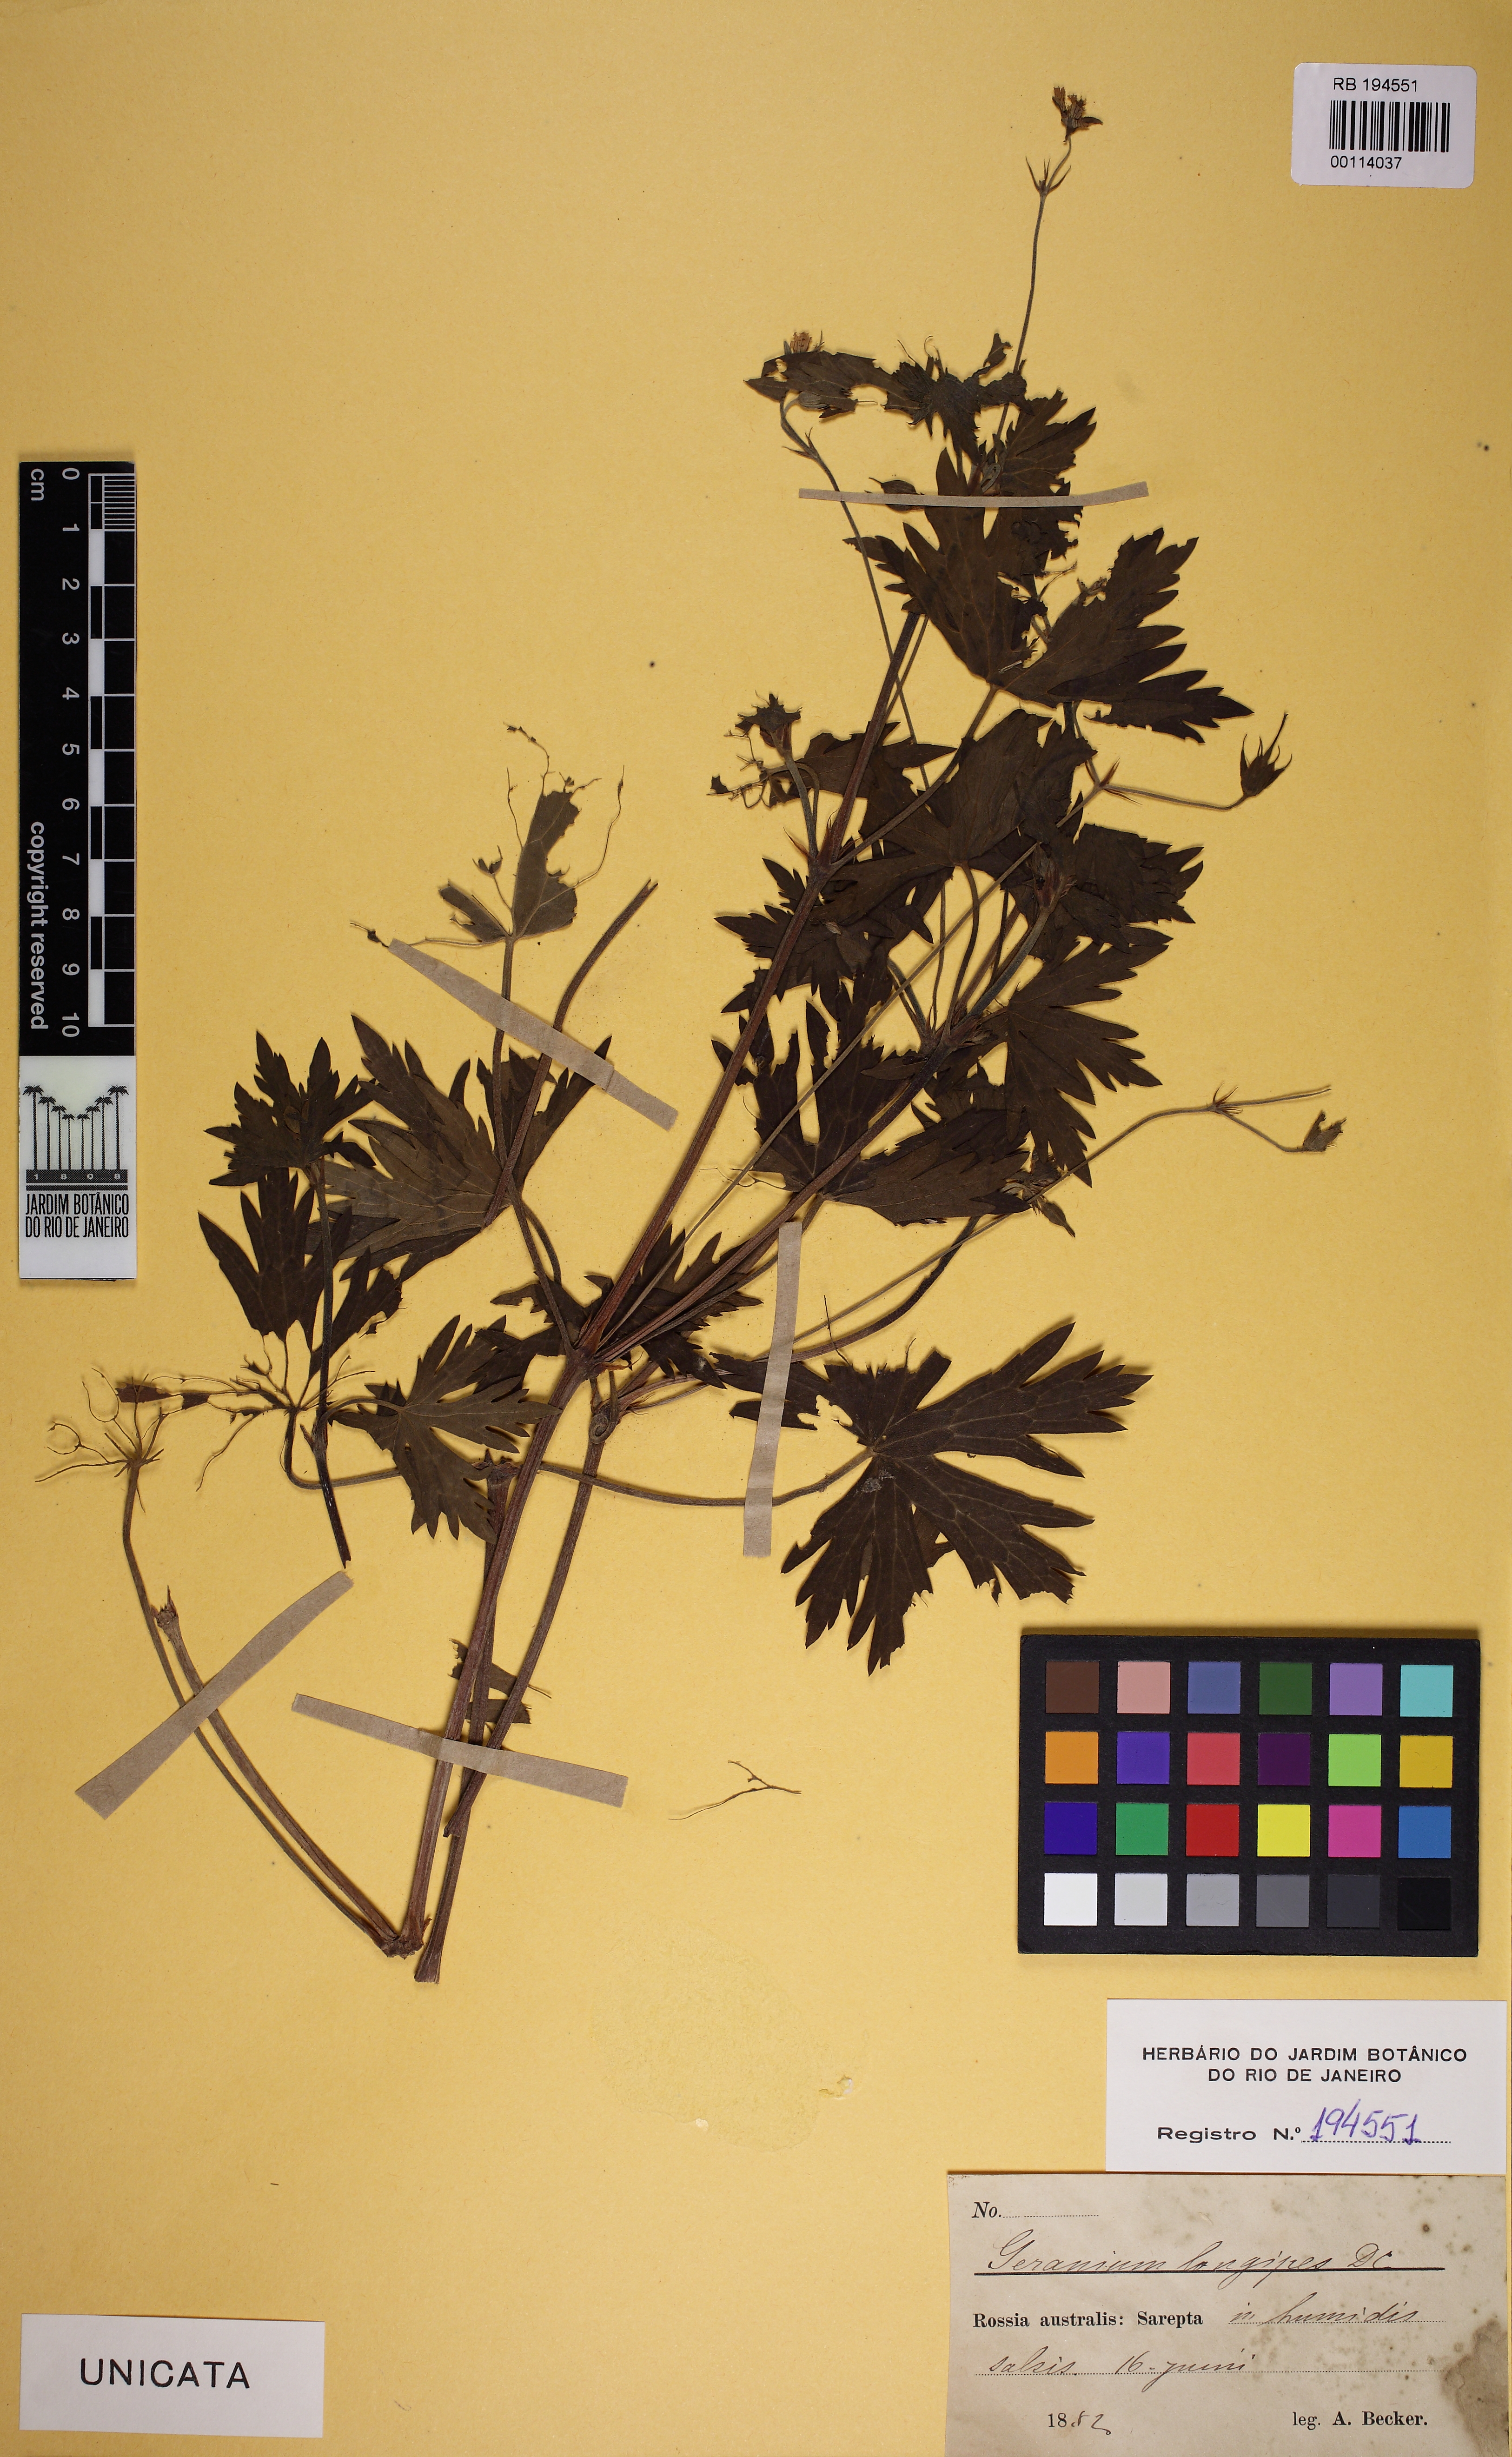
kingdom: Plantae
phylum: Tracheophyta
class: Magnoliopsida
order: Geraniales
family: Geraniaceae
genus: Geranium
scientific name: Geranium collinum
